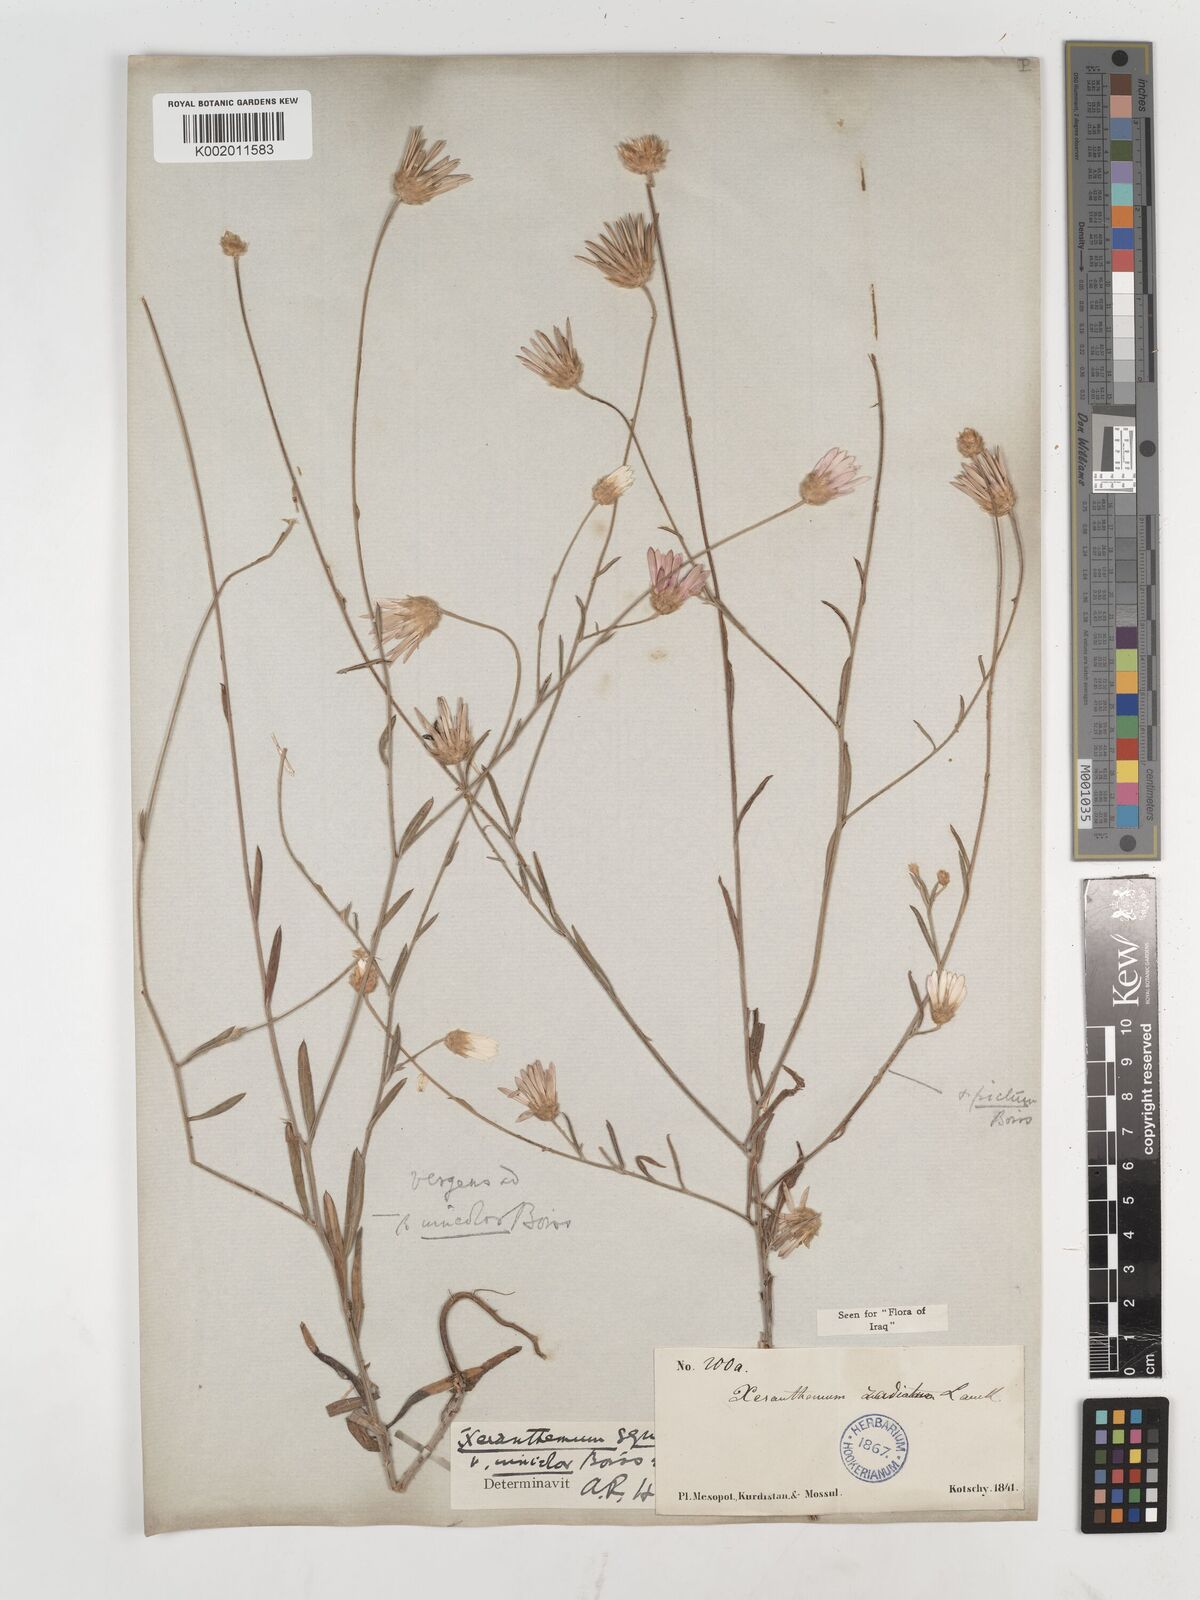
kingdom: Plantae
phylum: Tracheophyta
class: Magnoliopsida
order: Asterales
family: Asteraceae
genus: Xeranthemum
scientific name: Xeranthemum annuum
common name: Immortelle
